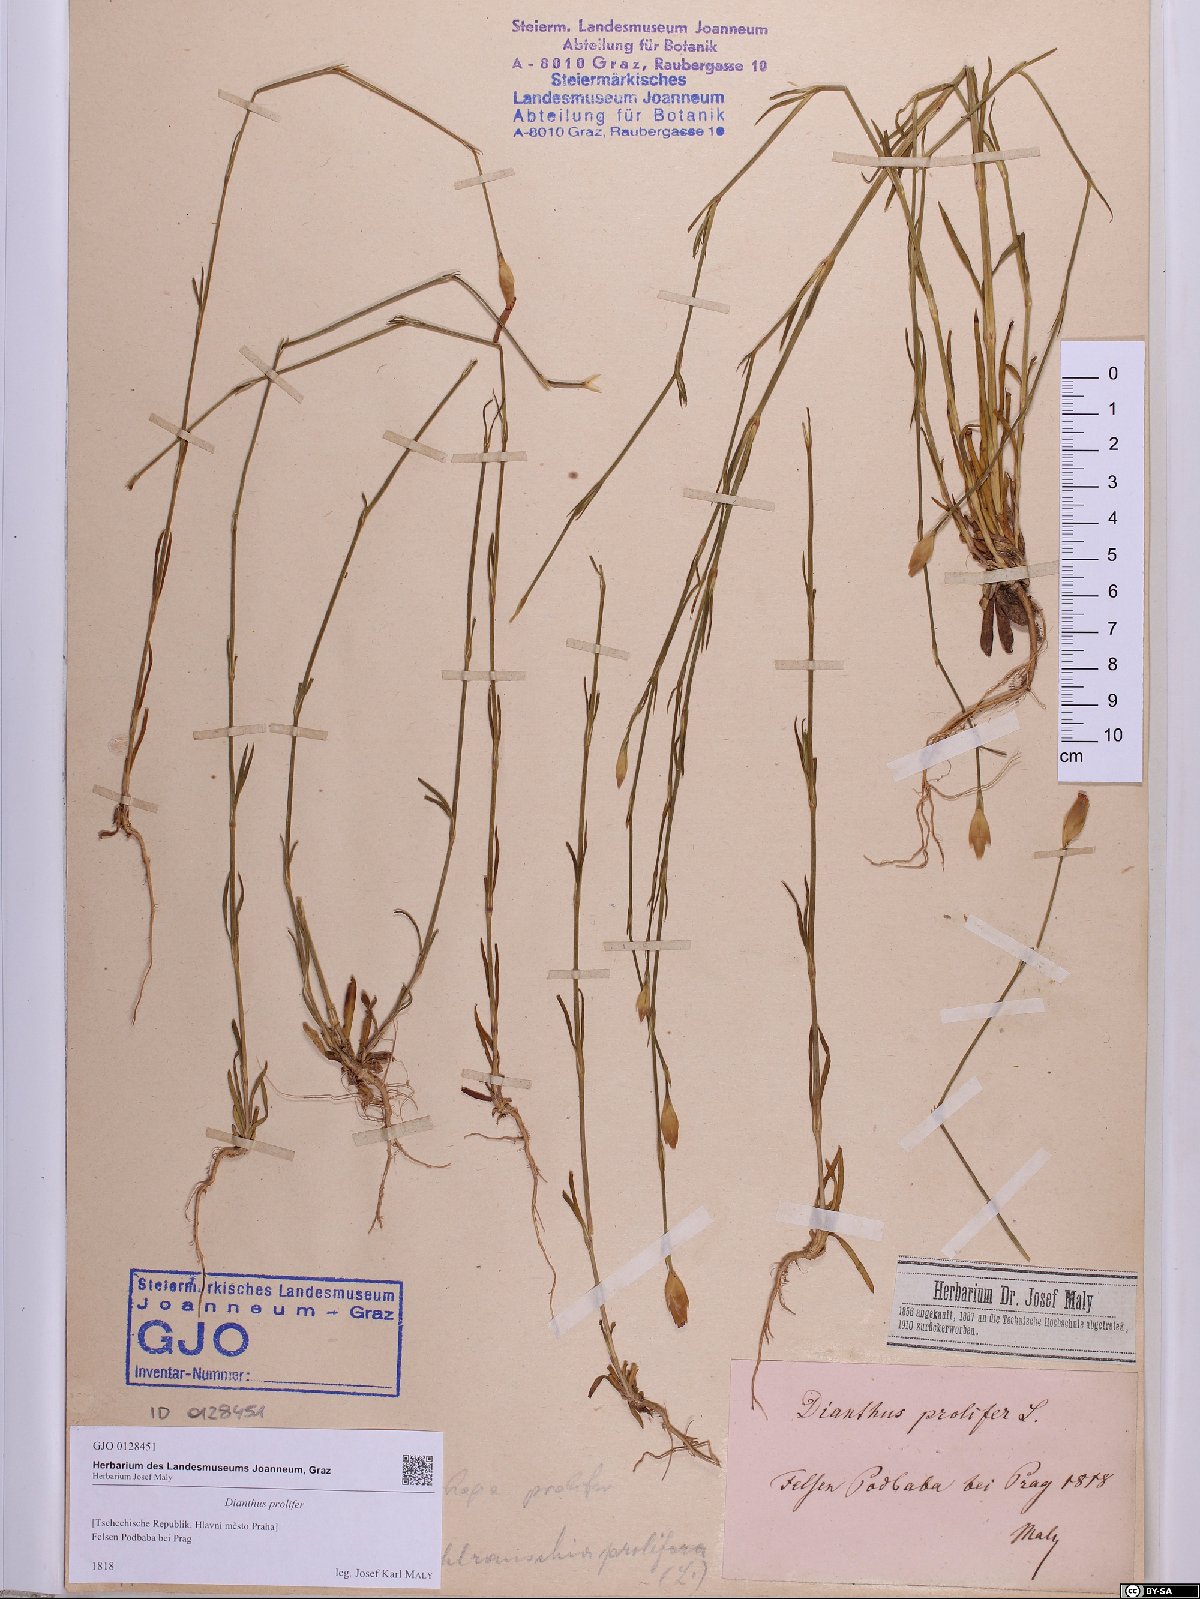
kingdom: Plantae
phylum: Tracheophyta
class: Magnoliopsida
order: Caryophyllales
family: Caryophyllaceae
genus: Petrorhagia
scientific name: Petrorhagia prolifera
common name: Proliferous pink
